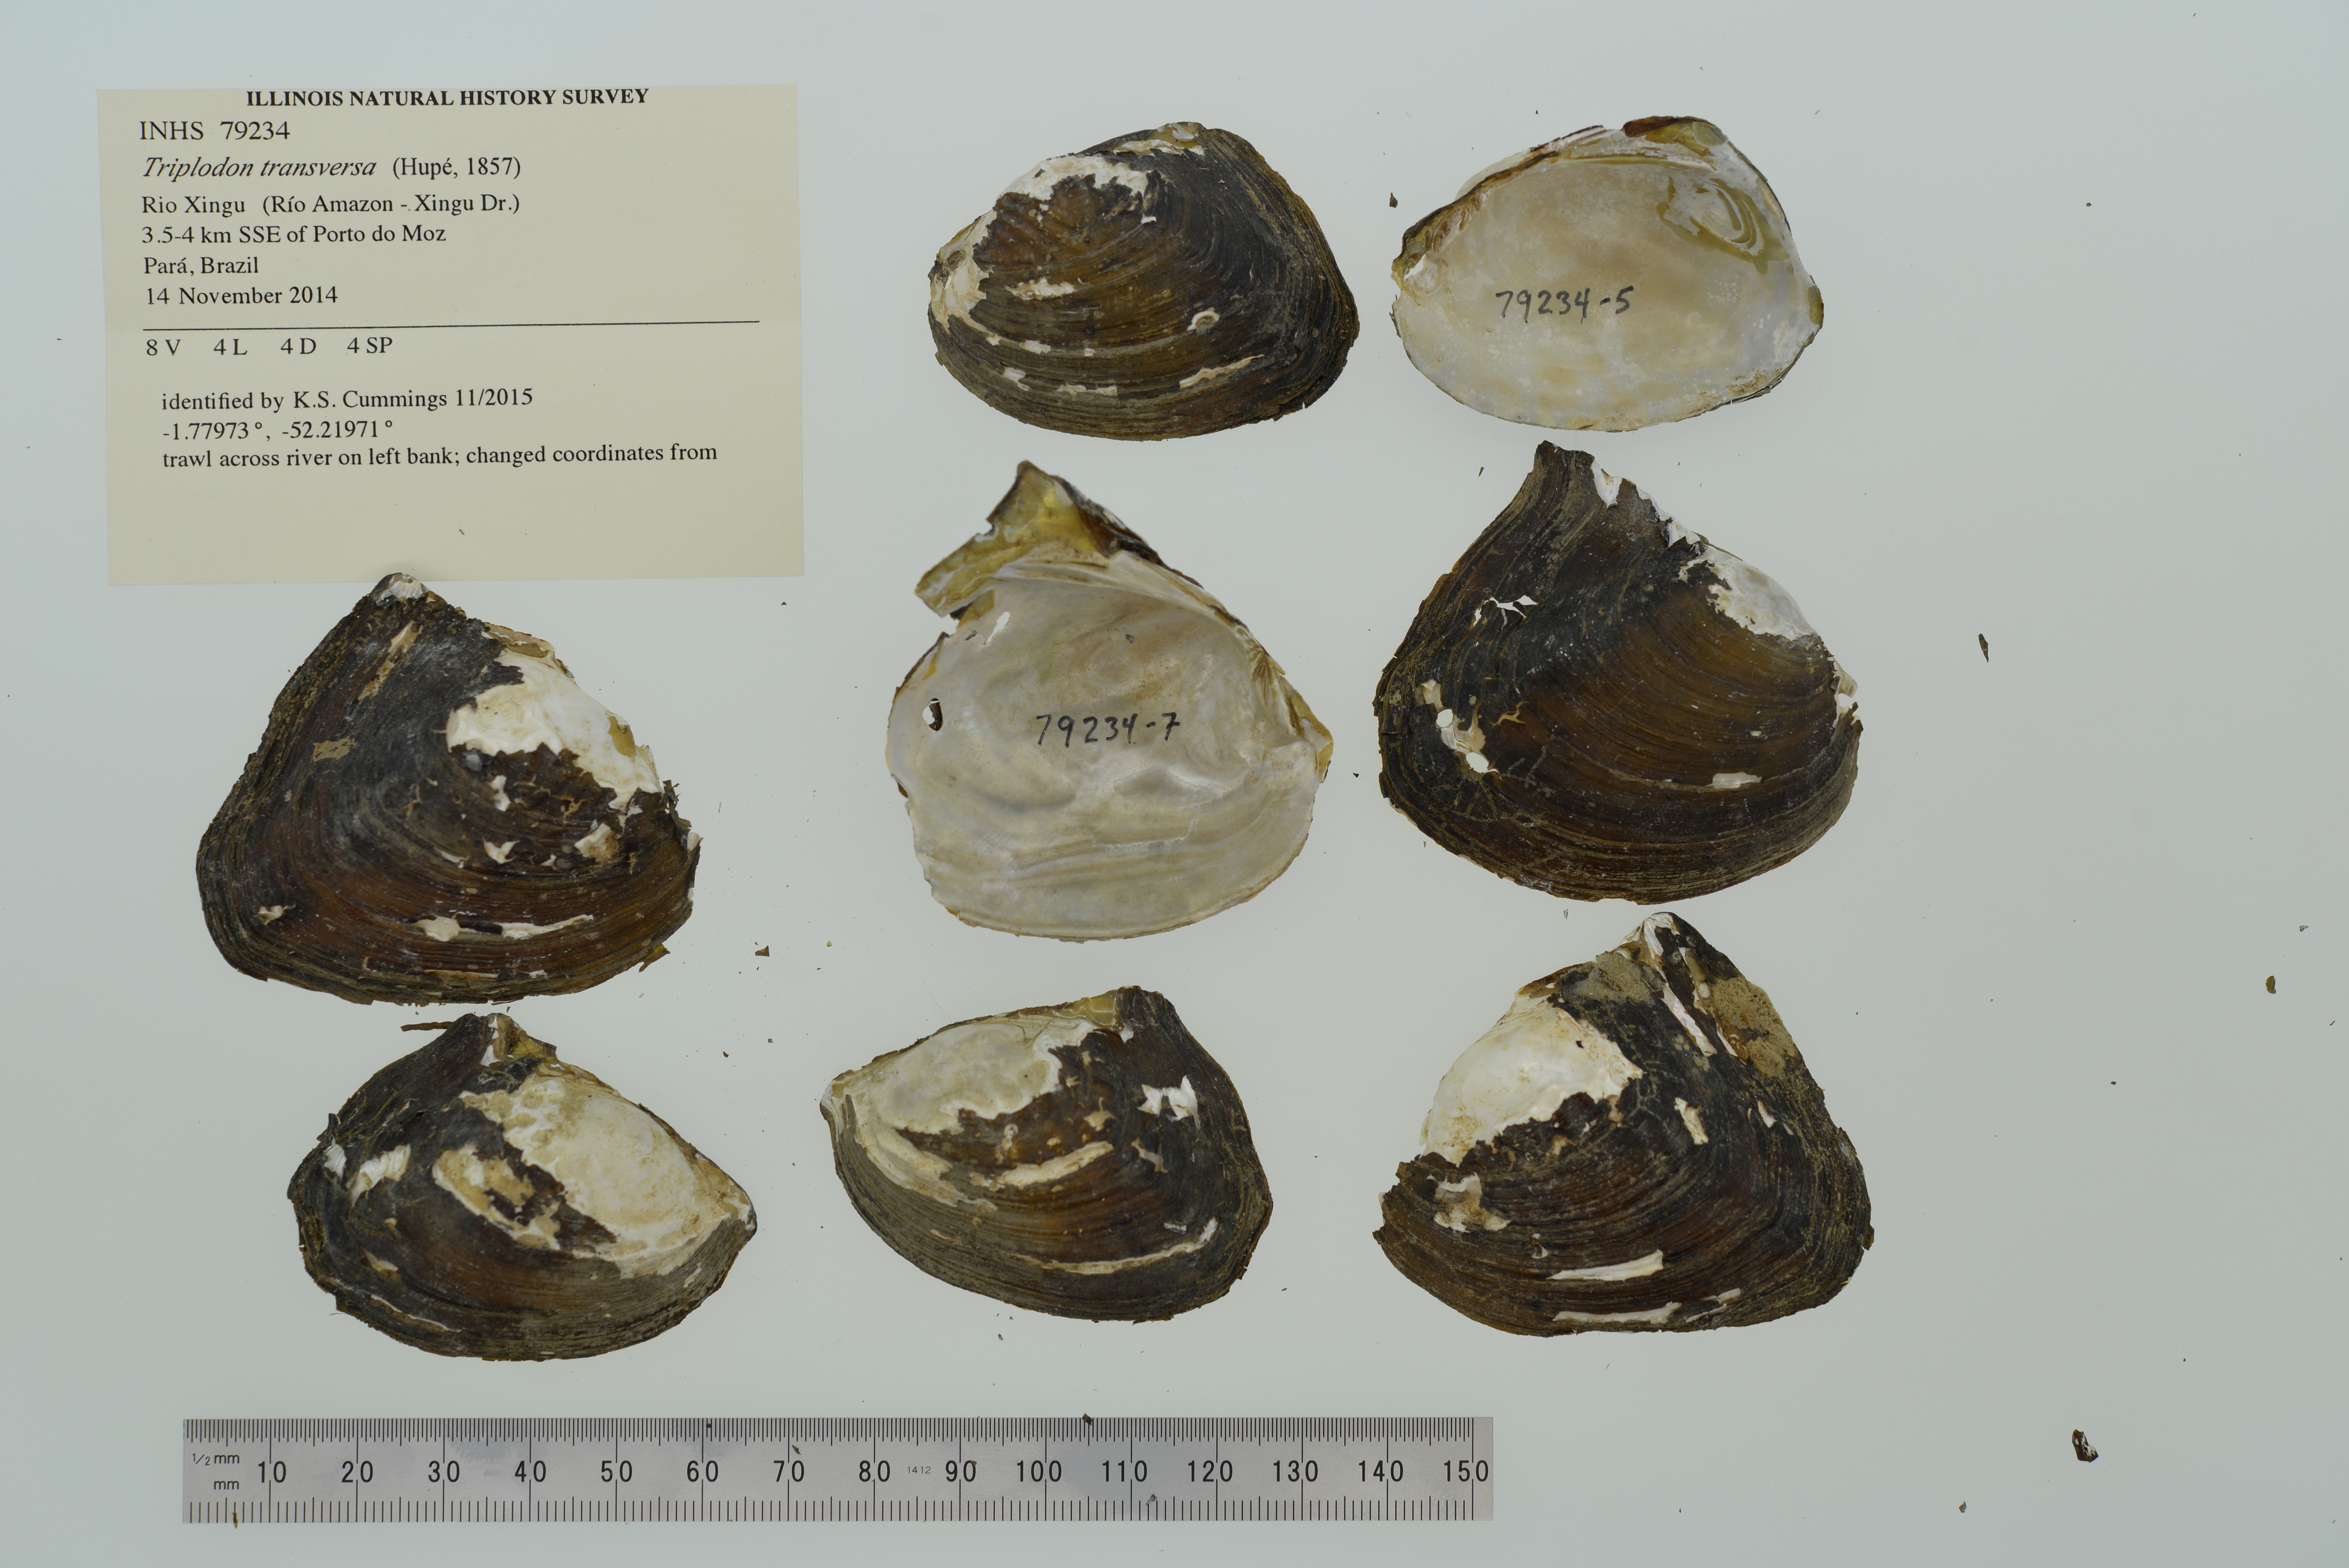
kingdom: Animalia
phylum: Mollusca
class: Bivalvia
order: Unionida
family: Hyriidae
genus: Triplodon
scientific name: Triplodon
